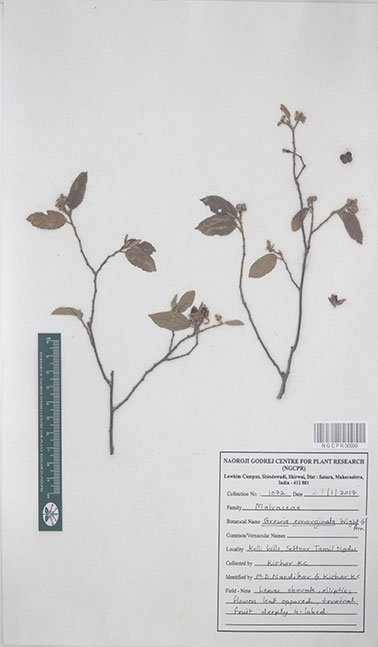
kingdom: Plantae
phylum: Tracheophyta
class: Magnoliopsida
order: Malvales
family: Malvaceae
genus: Grewia
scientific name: Grewia oppositifolia
